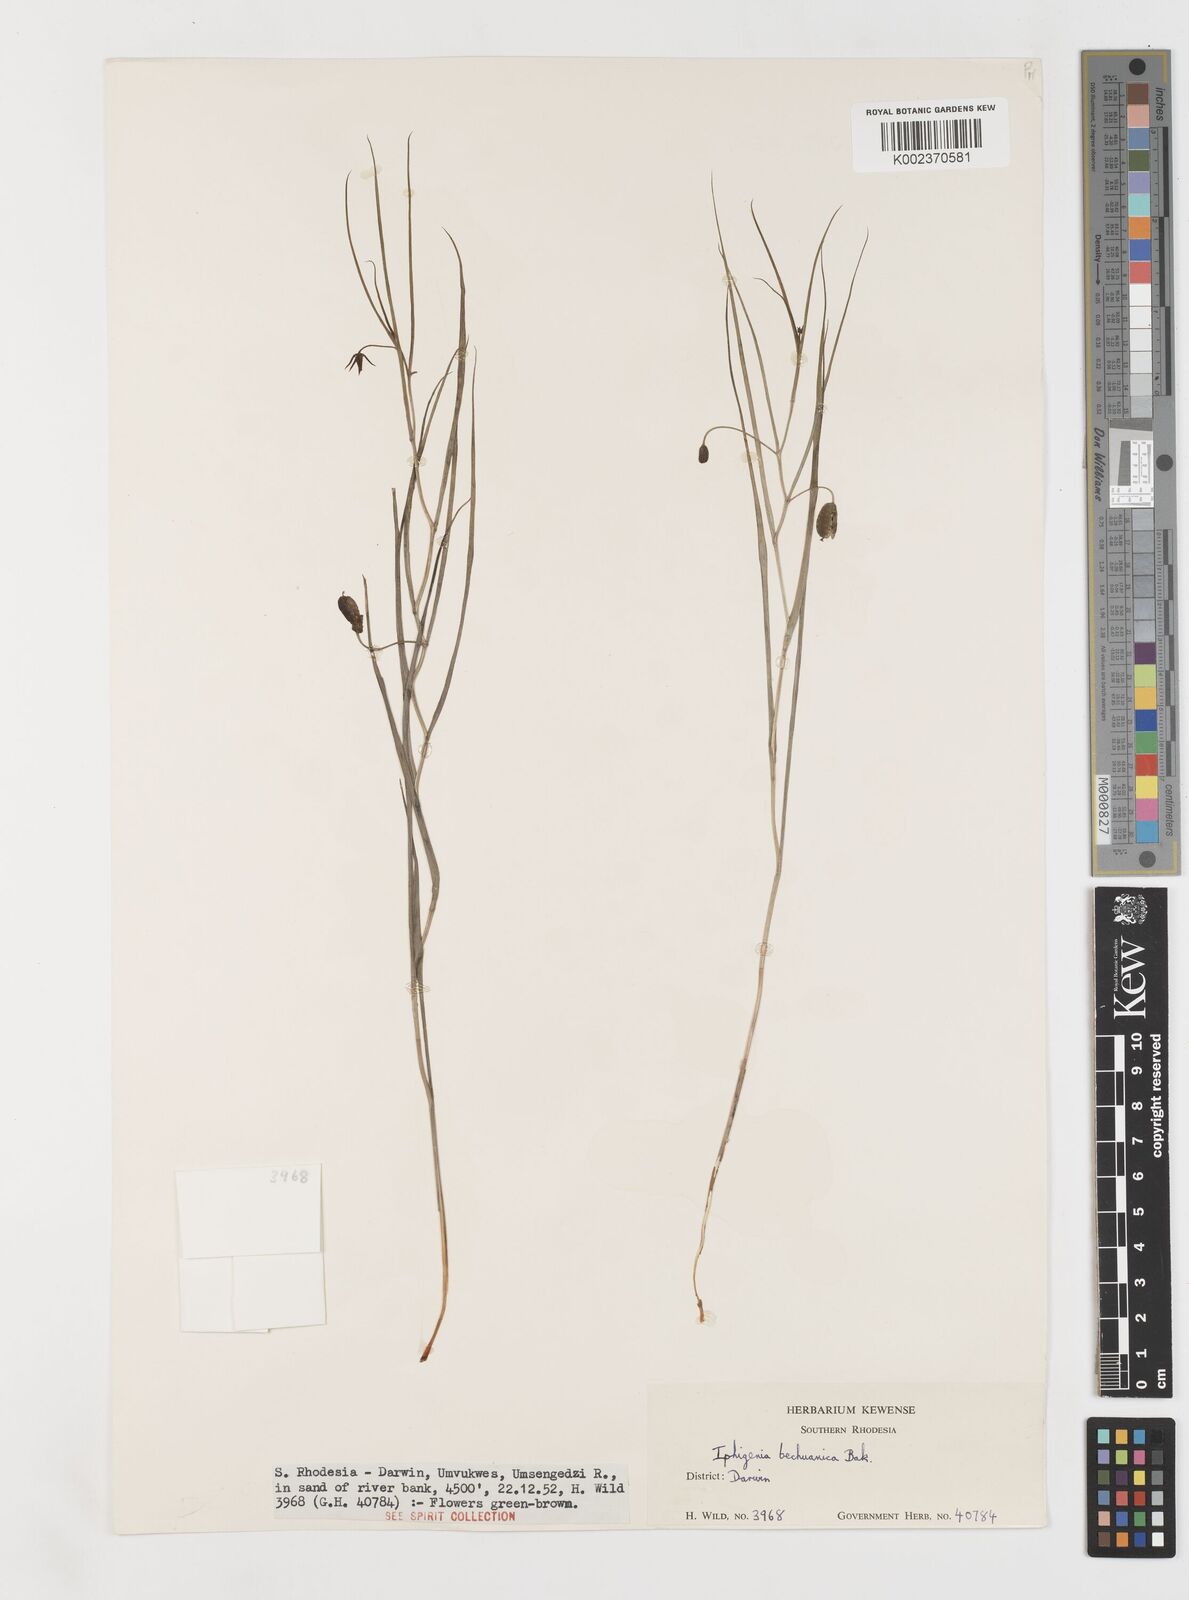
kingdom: Plantae
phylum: Tracheophyta
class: Liliopsida
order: Liliales
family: Colchicaceae
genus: Iphigenia
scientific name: Iphigenia oliveri
